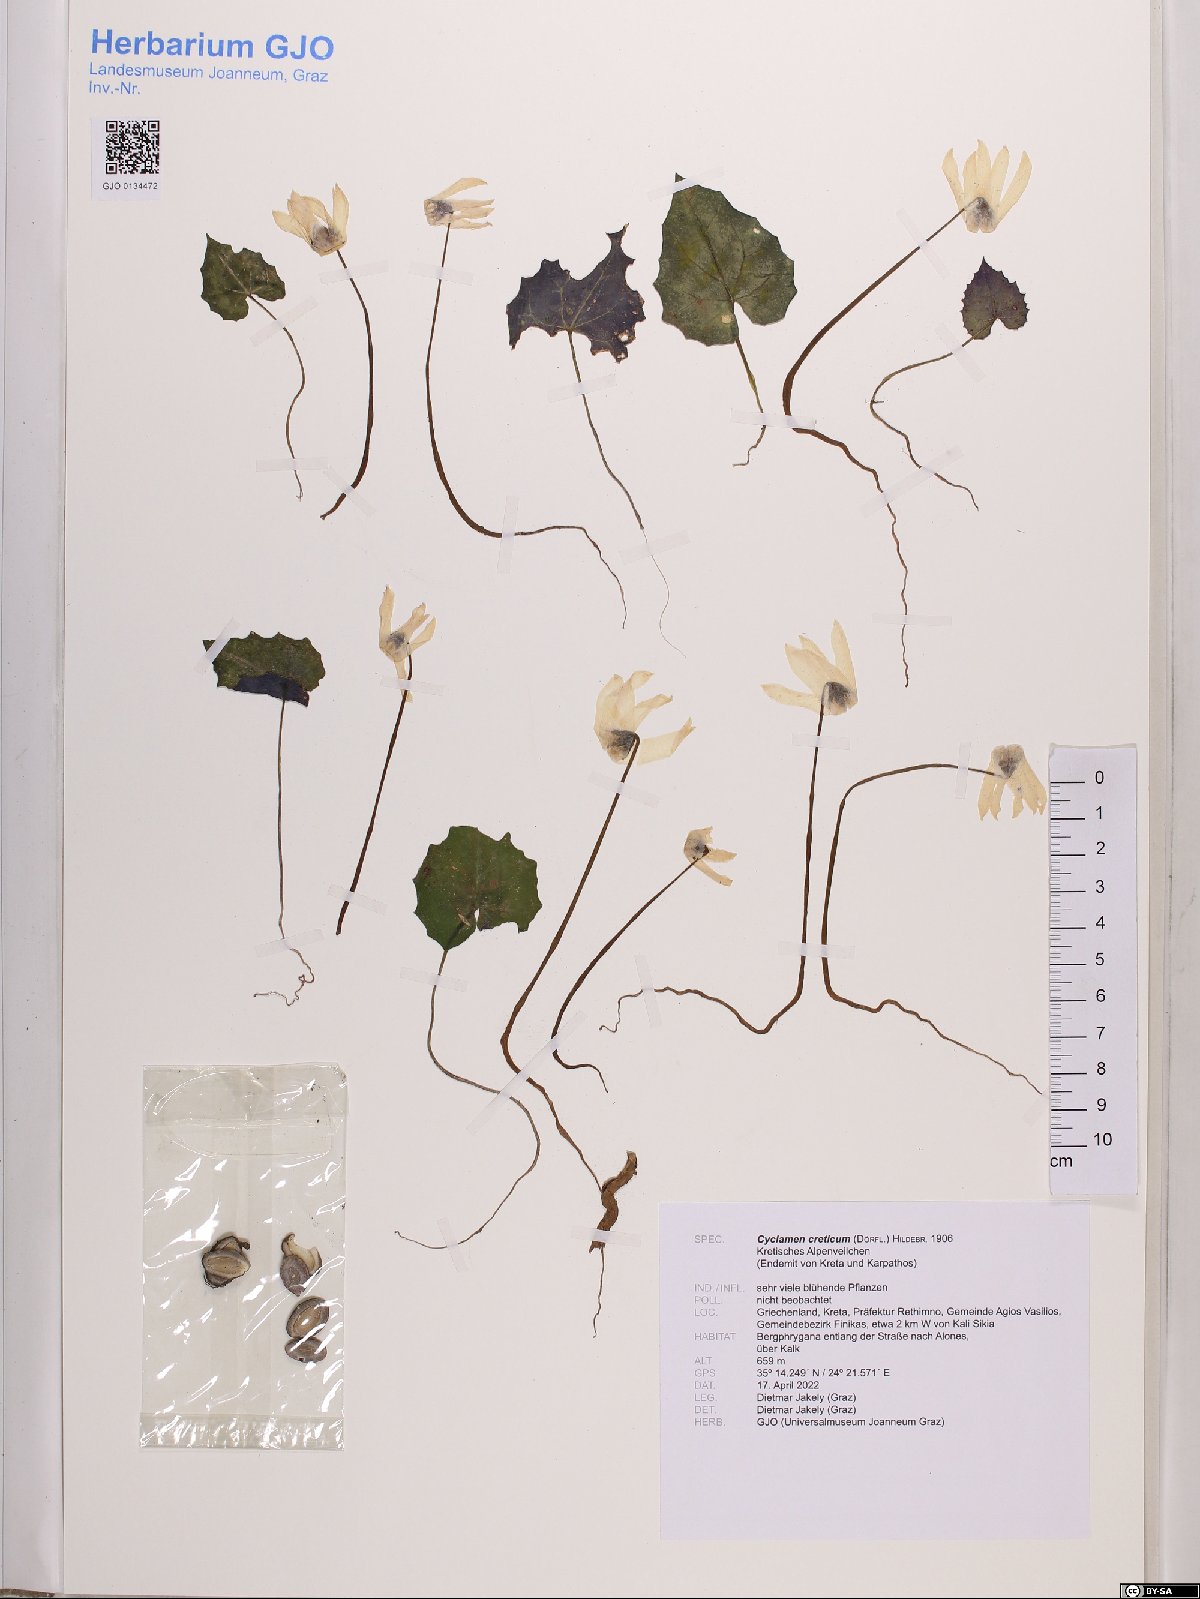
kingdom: Plantae
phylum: Tracheophyta
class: Magnoliopsida
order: Ericales
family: Primulaceae
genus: Cyclamen
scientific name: Cyclamen creticum
